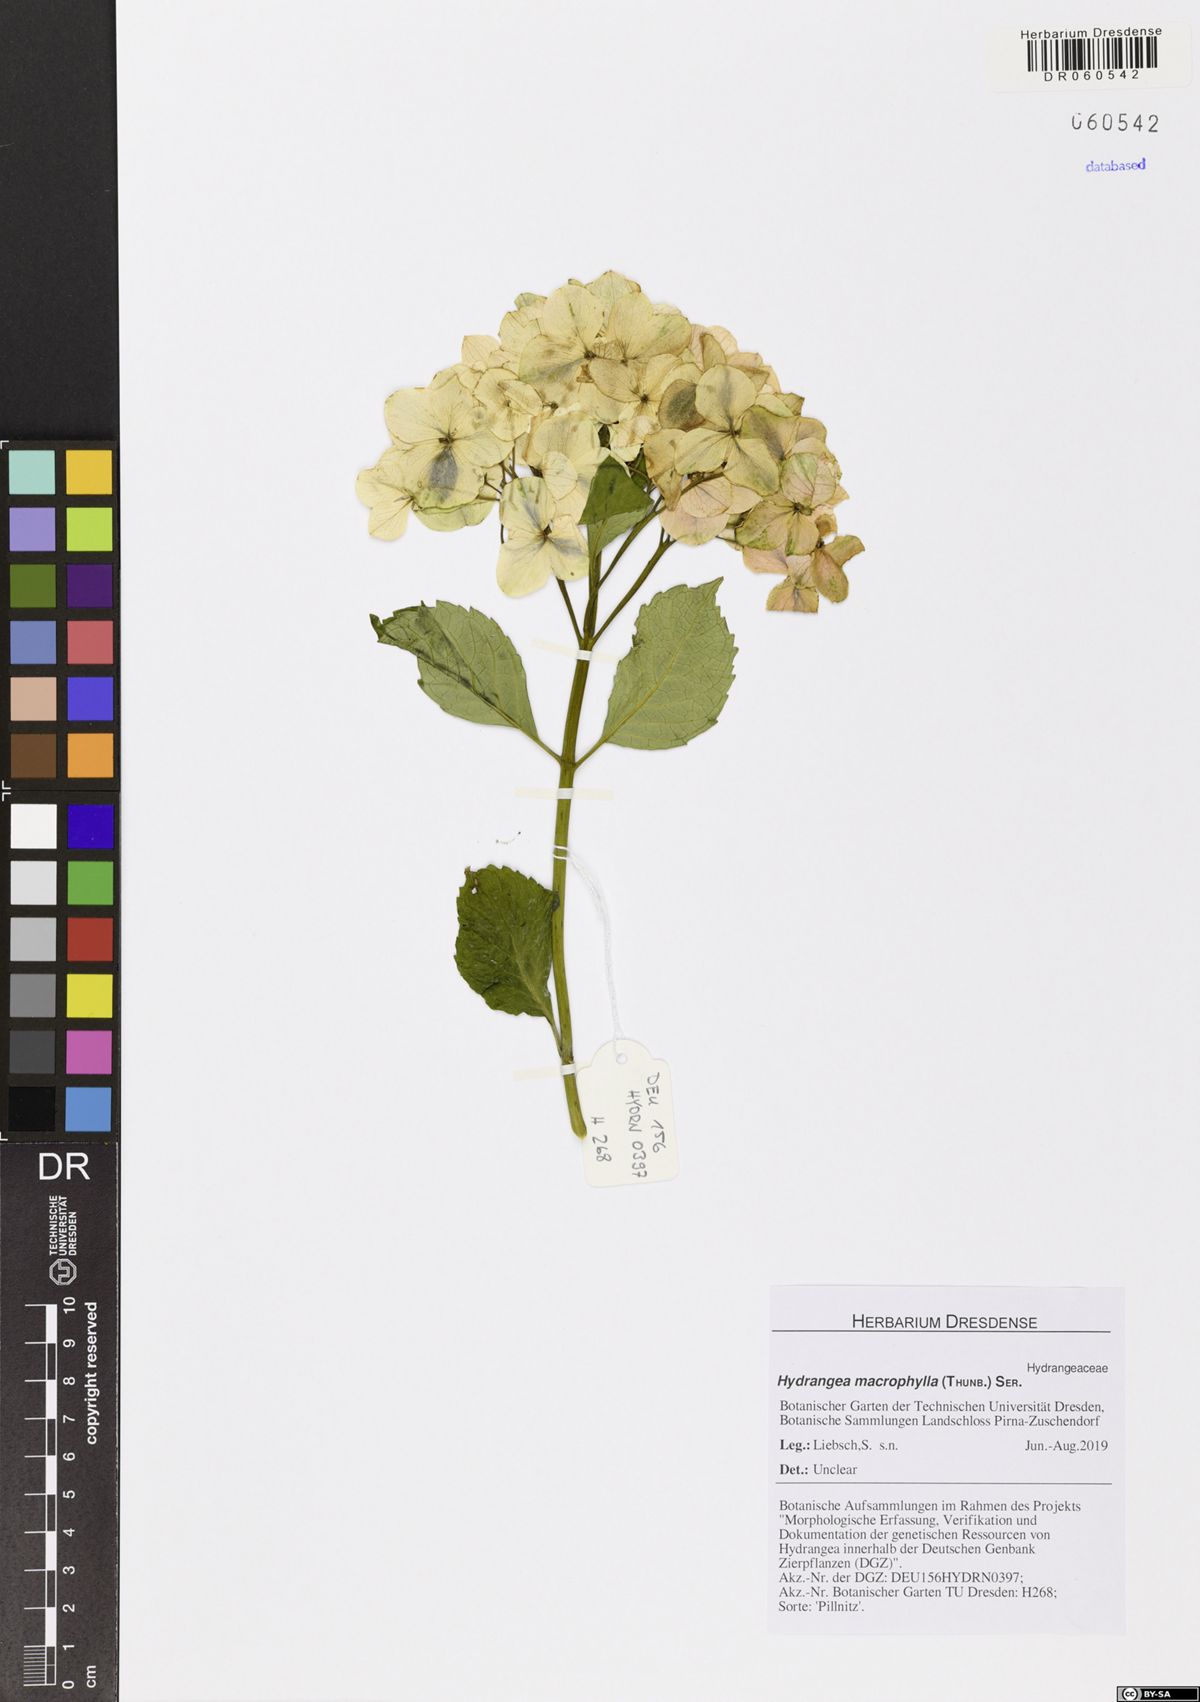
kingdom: Plantae
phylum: Tracheophyta
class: Magnoliopsida
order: Cornales
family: Hydrangeaceae
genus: Hydrangea
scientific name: Hydrangea macrophylla
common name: Hydrangea
